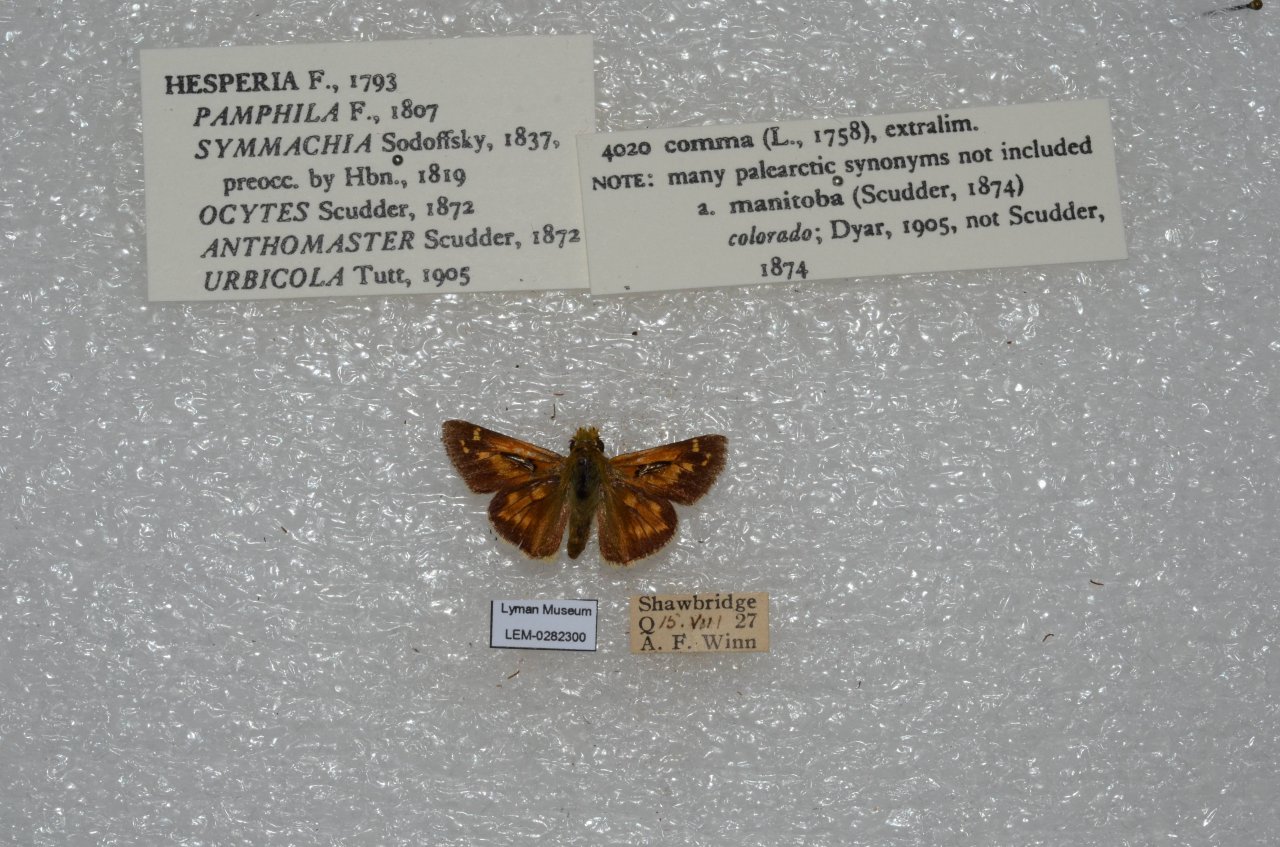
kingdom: Animalia
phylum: Arthropoda
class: Insecta
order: Lepidoptera
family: Hesperiidae
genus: Hesperia
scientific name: Hesperia comma
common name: Common Branded Skipper
